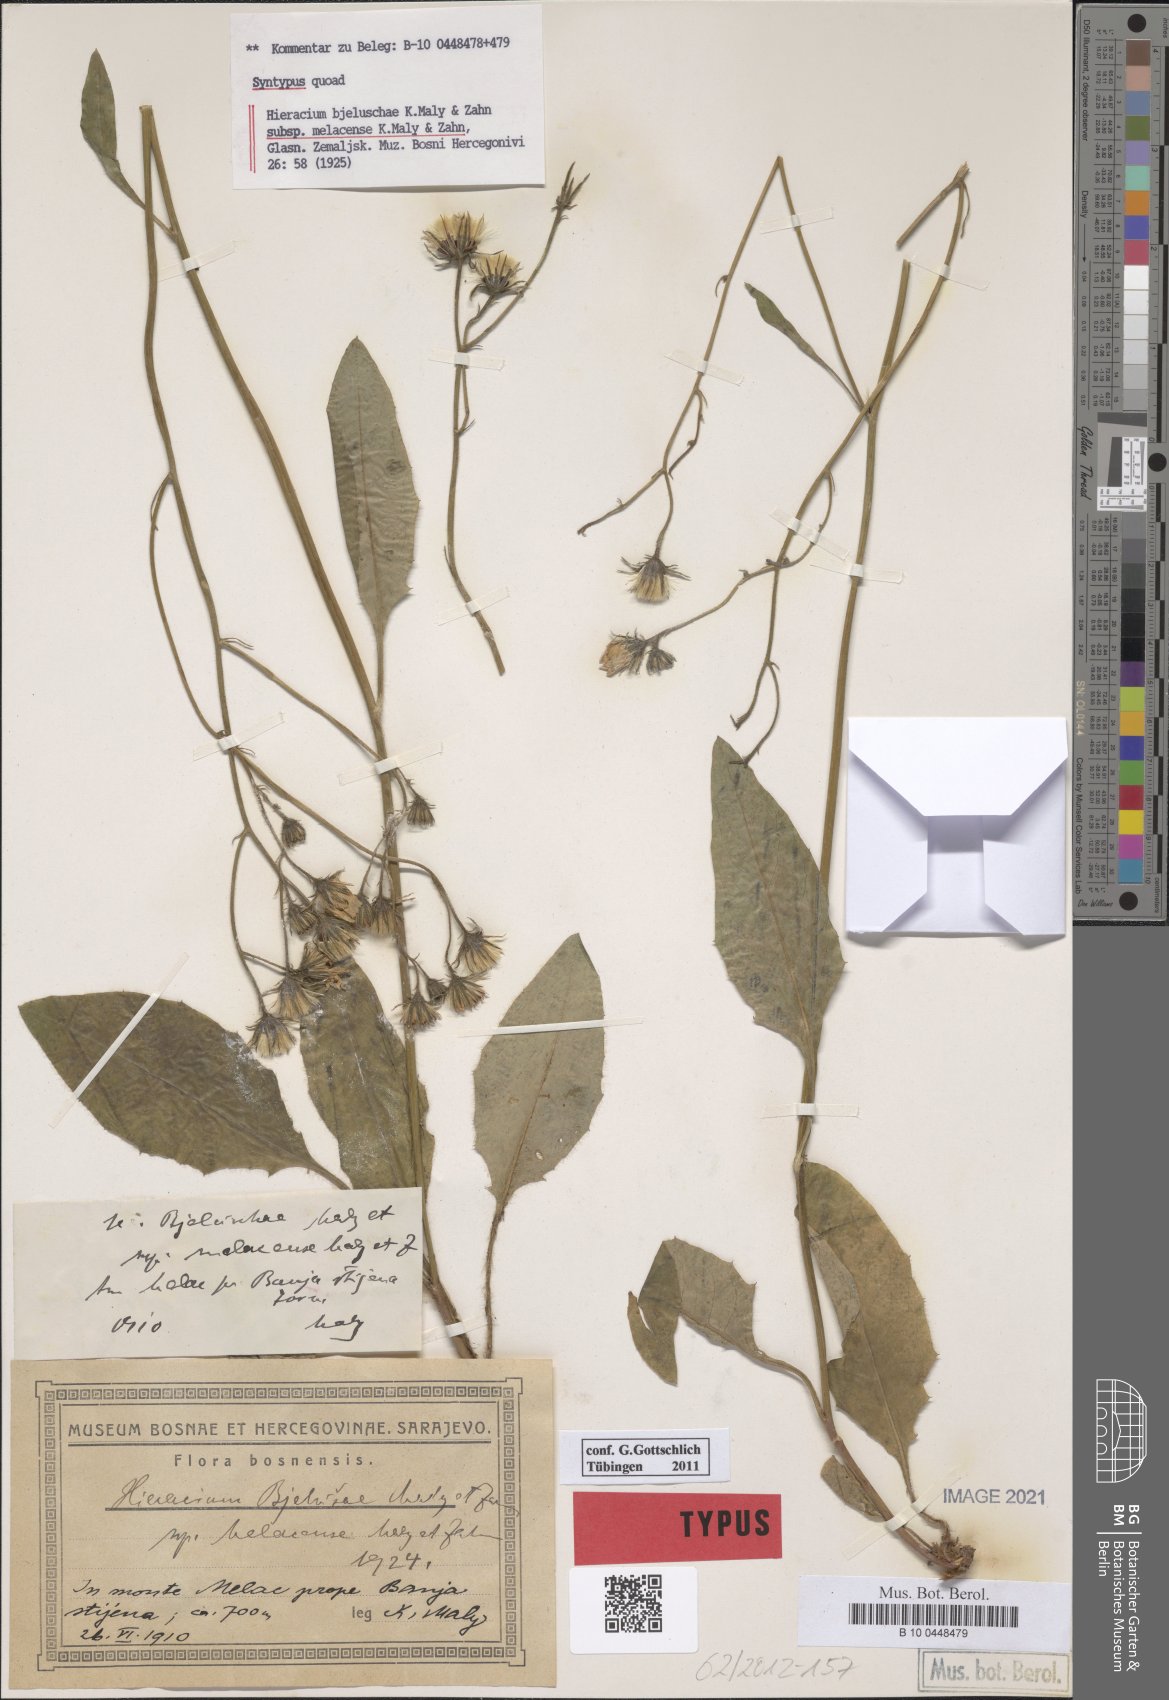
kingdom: Plantae
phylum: Tracheophyta
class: Magnoliopsida
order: Asterales
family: Asteraceae
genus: Hieracium
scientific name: Hieracium bjeluschae
